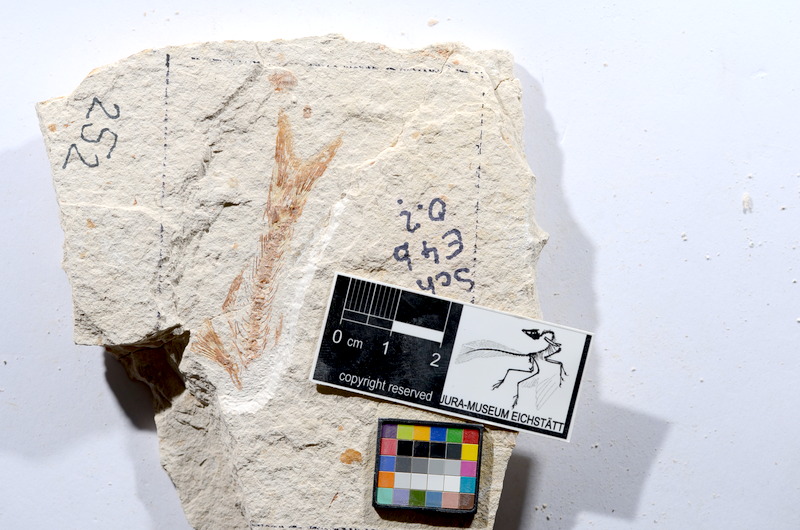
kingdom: Animalia
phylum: Chordata
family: Ascalaboidae
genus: Tharsis
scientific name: Tharsis dubius
